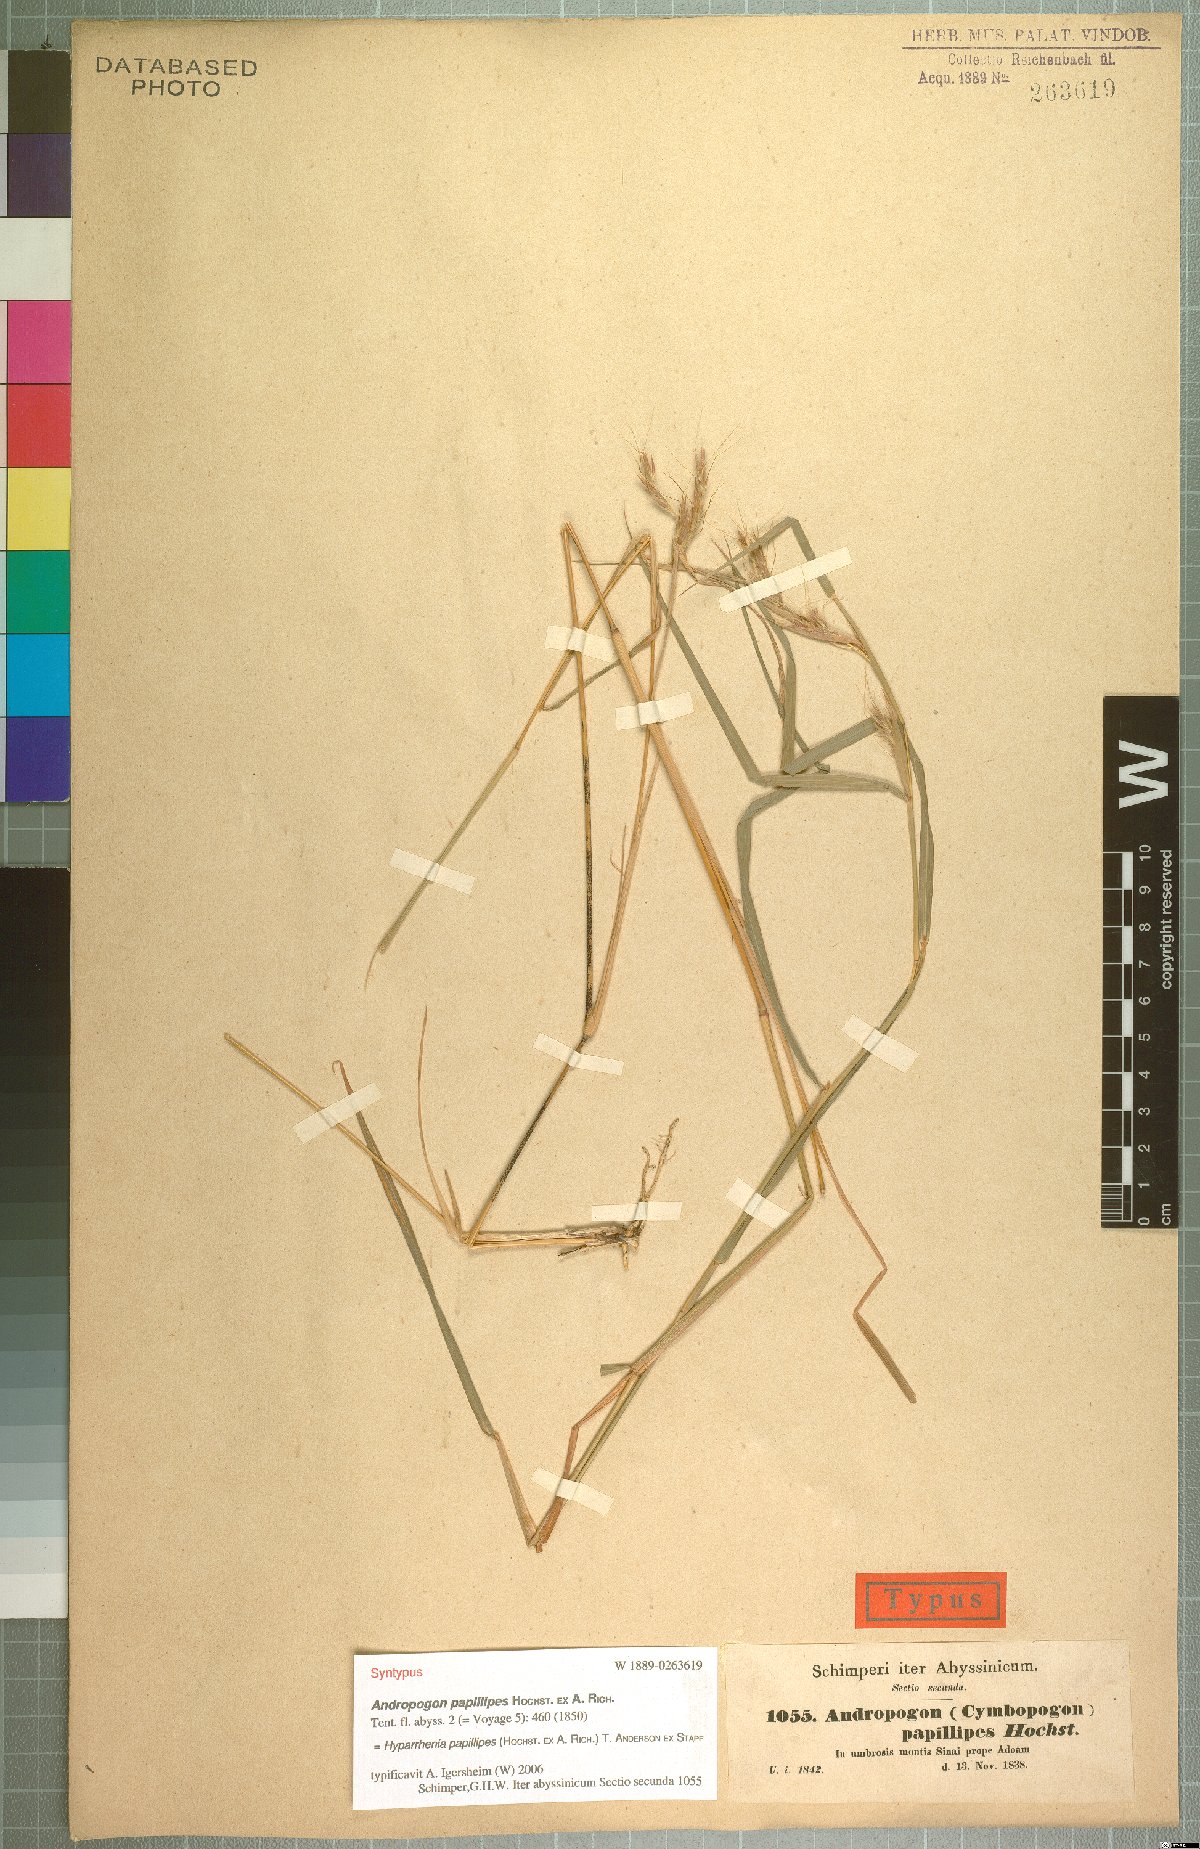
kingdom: Plantae
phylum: Tracheophyta
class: Liliopsida
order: Poales
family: Poaceae
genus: Hyparrhenia
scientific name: Hyparrhenia papillipes
